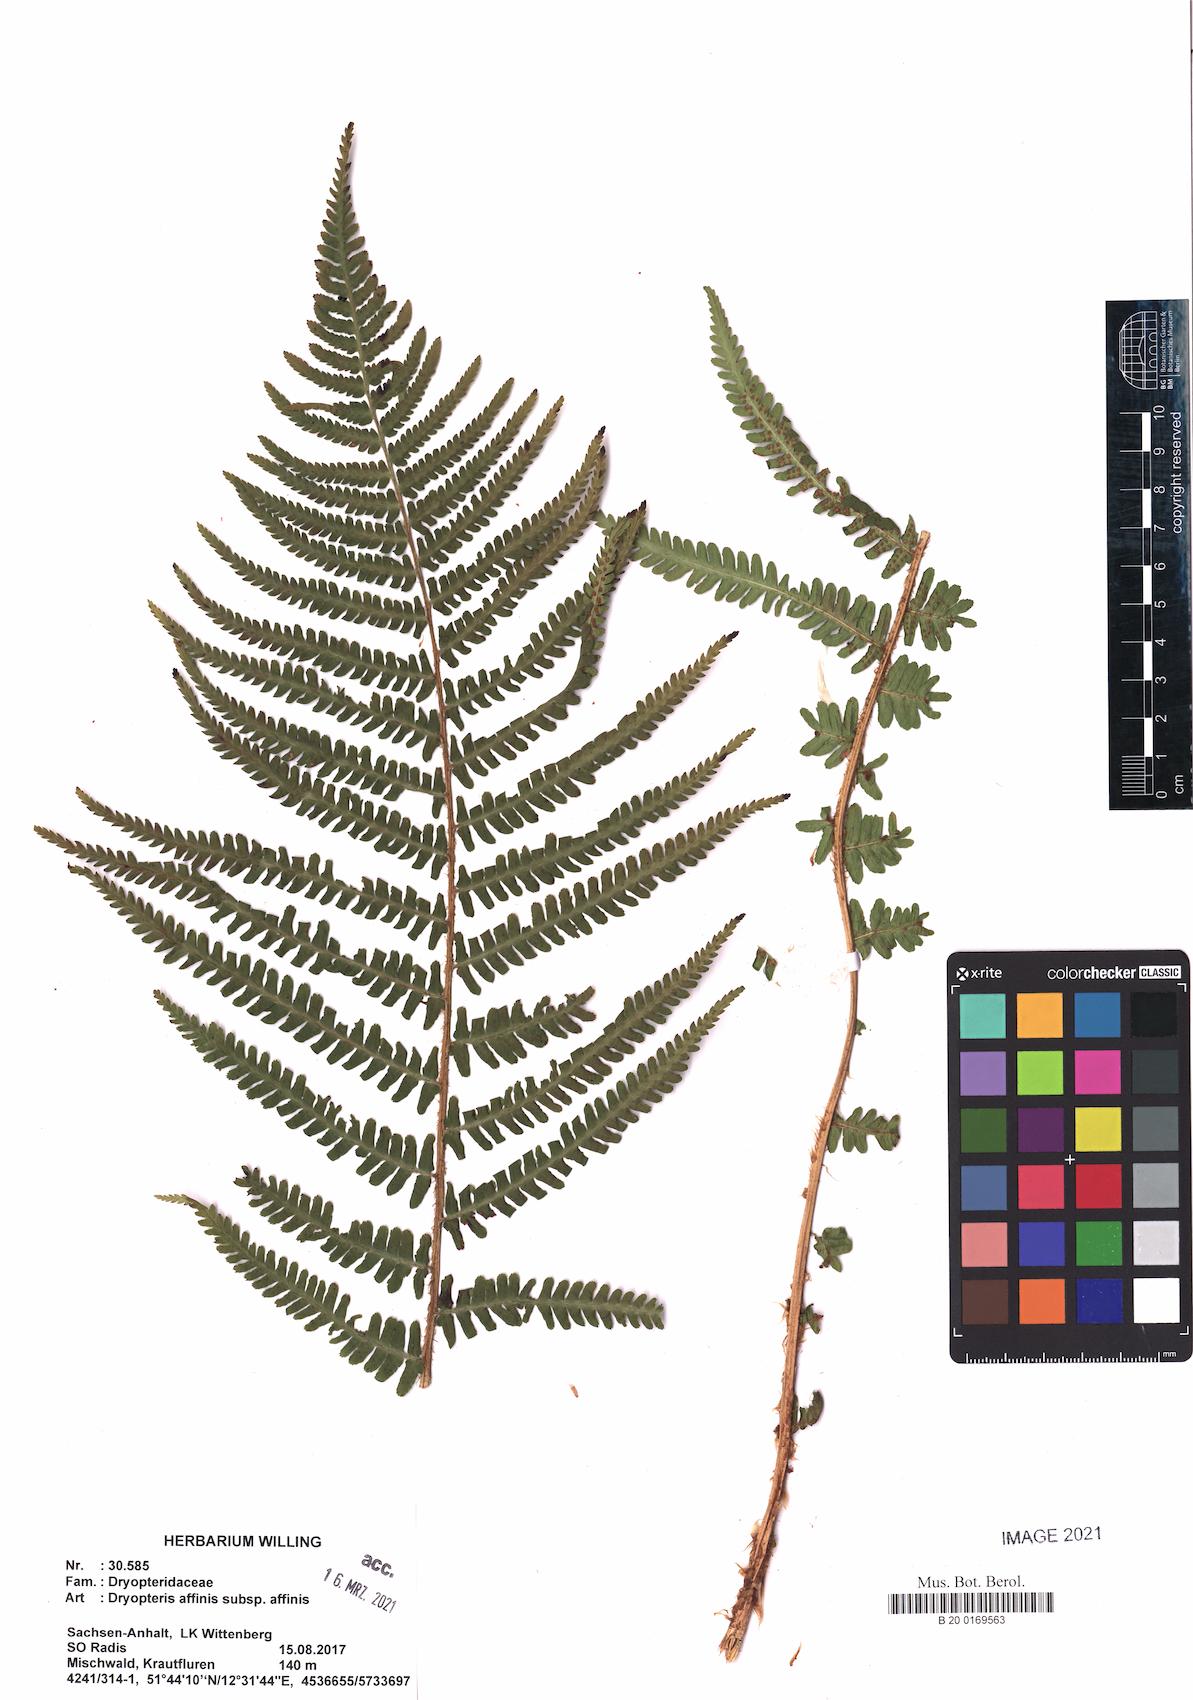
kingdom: Plantae
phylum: Tracheophyta
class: Polypodiopsida
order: Polypodiales
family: Dryopteridaceae
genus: Dryopteris
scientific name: Dryopteris affinis
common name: Scaly male fern
